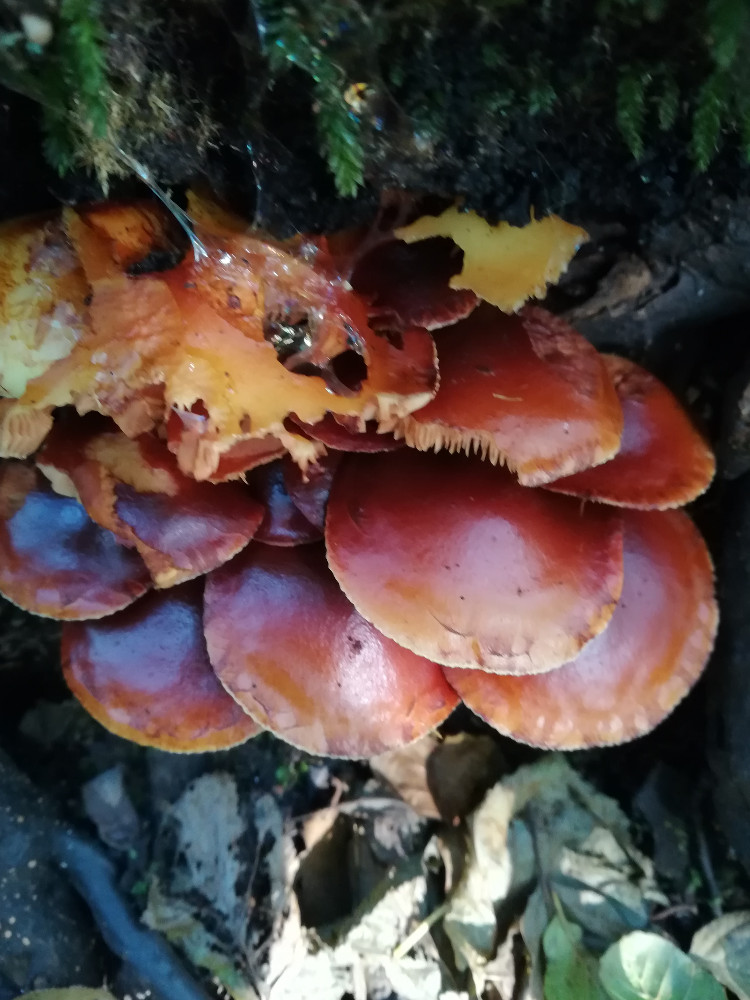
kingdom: Fungi
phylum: Basidiomycota
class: Agaricomycetes
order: Agaricales
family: Strophariaceae
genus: Kuehneromyces
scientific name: Kuehneromyces mutabilis
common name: foranderlig skælhat
